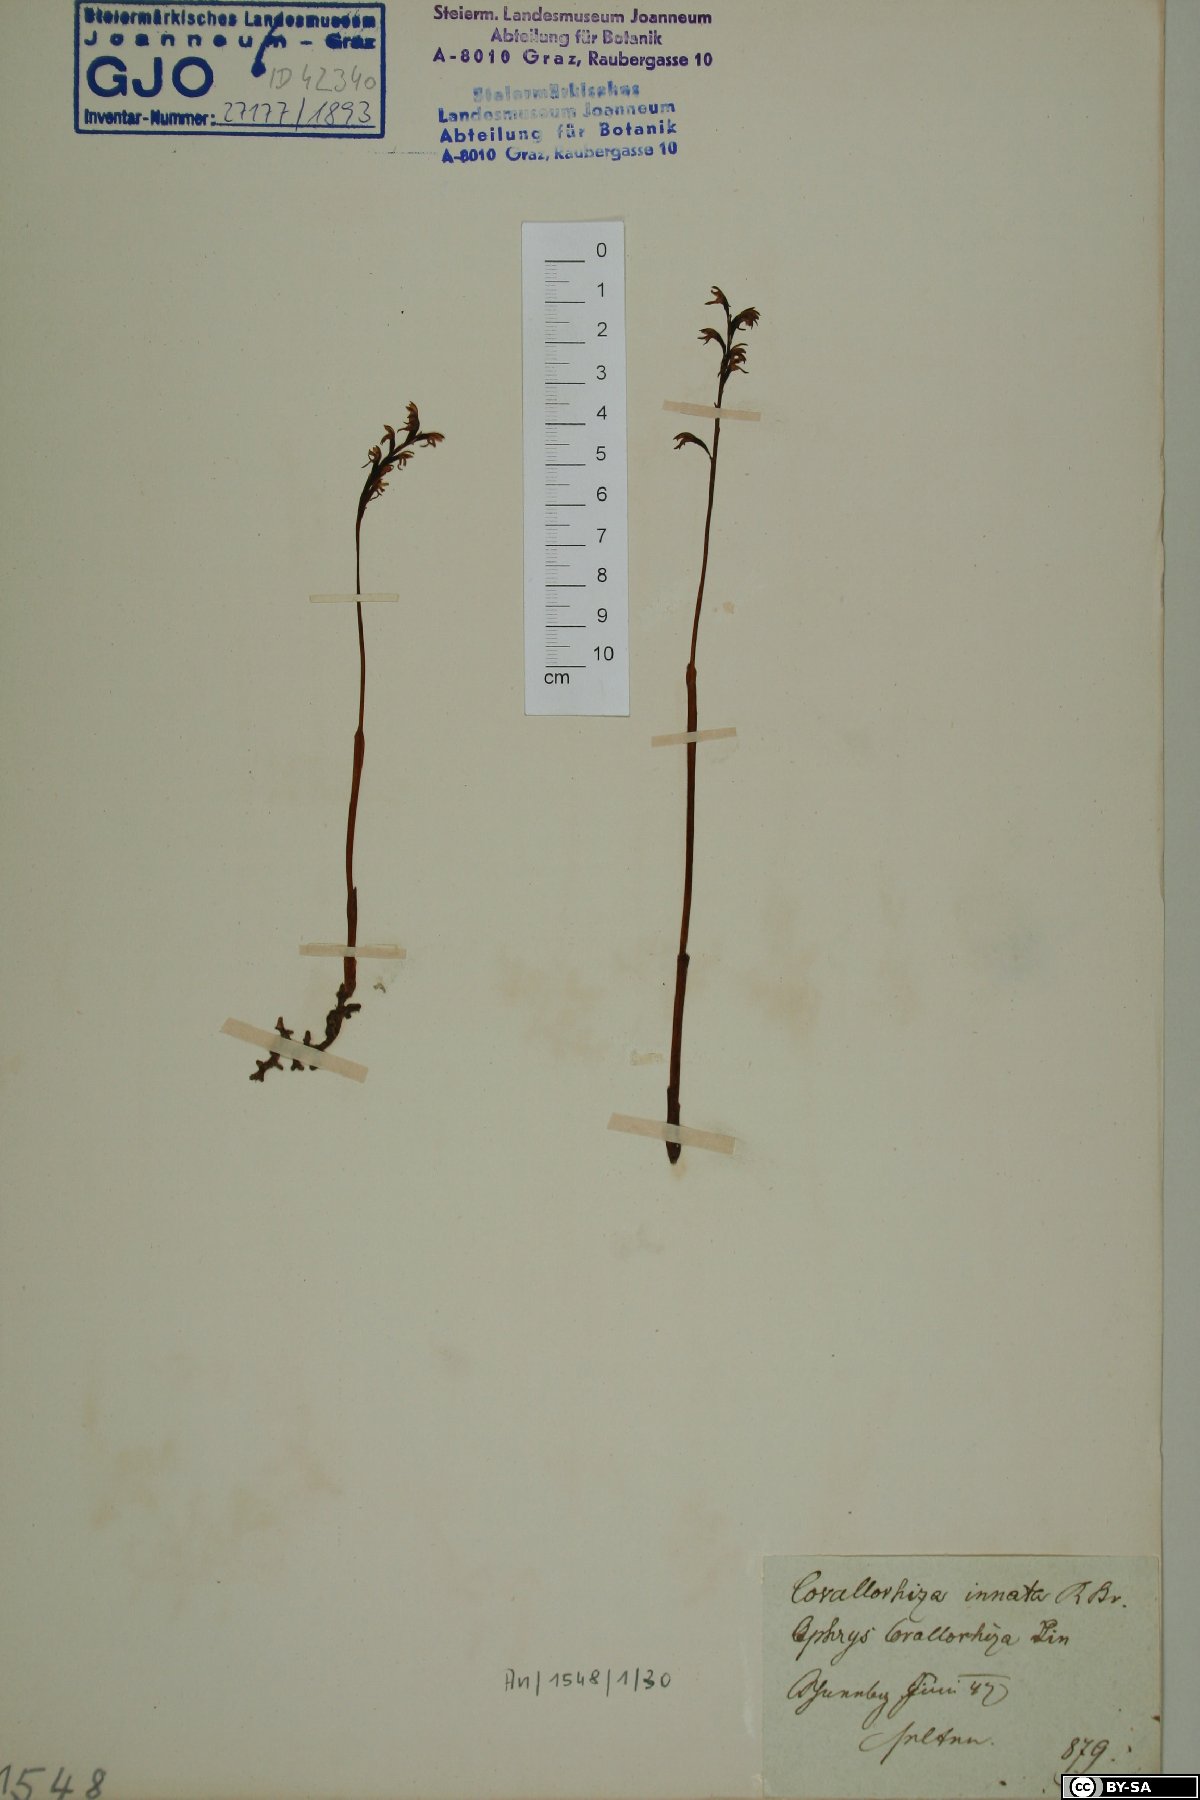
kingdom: Plantae
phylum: Tracheophyta
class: Liliopsida
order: Asparagales
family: Orchidaceae
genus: Corallorhiza
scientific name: Corallorhiza trifida
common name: Yellow coralroot
